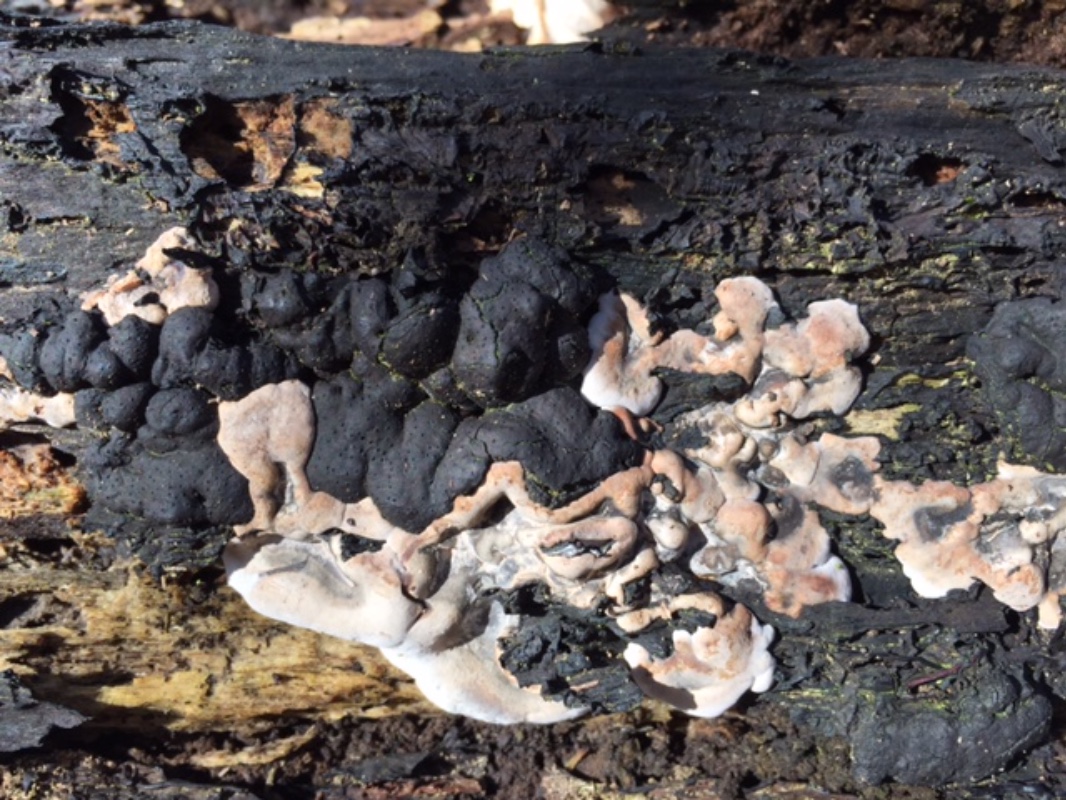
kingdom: Fungi
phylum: Ascomycota
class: Sordariomycetes
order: Xylariales
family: Xylariaceae
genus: Kretzschmaria
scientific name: Kretzschmaria deusta
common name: stor kulsvamp
